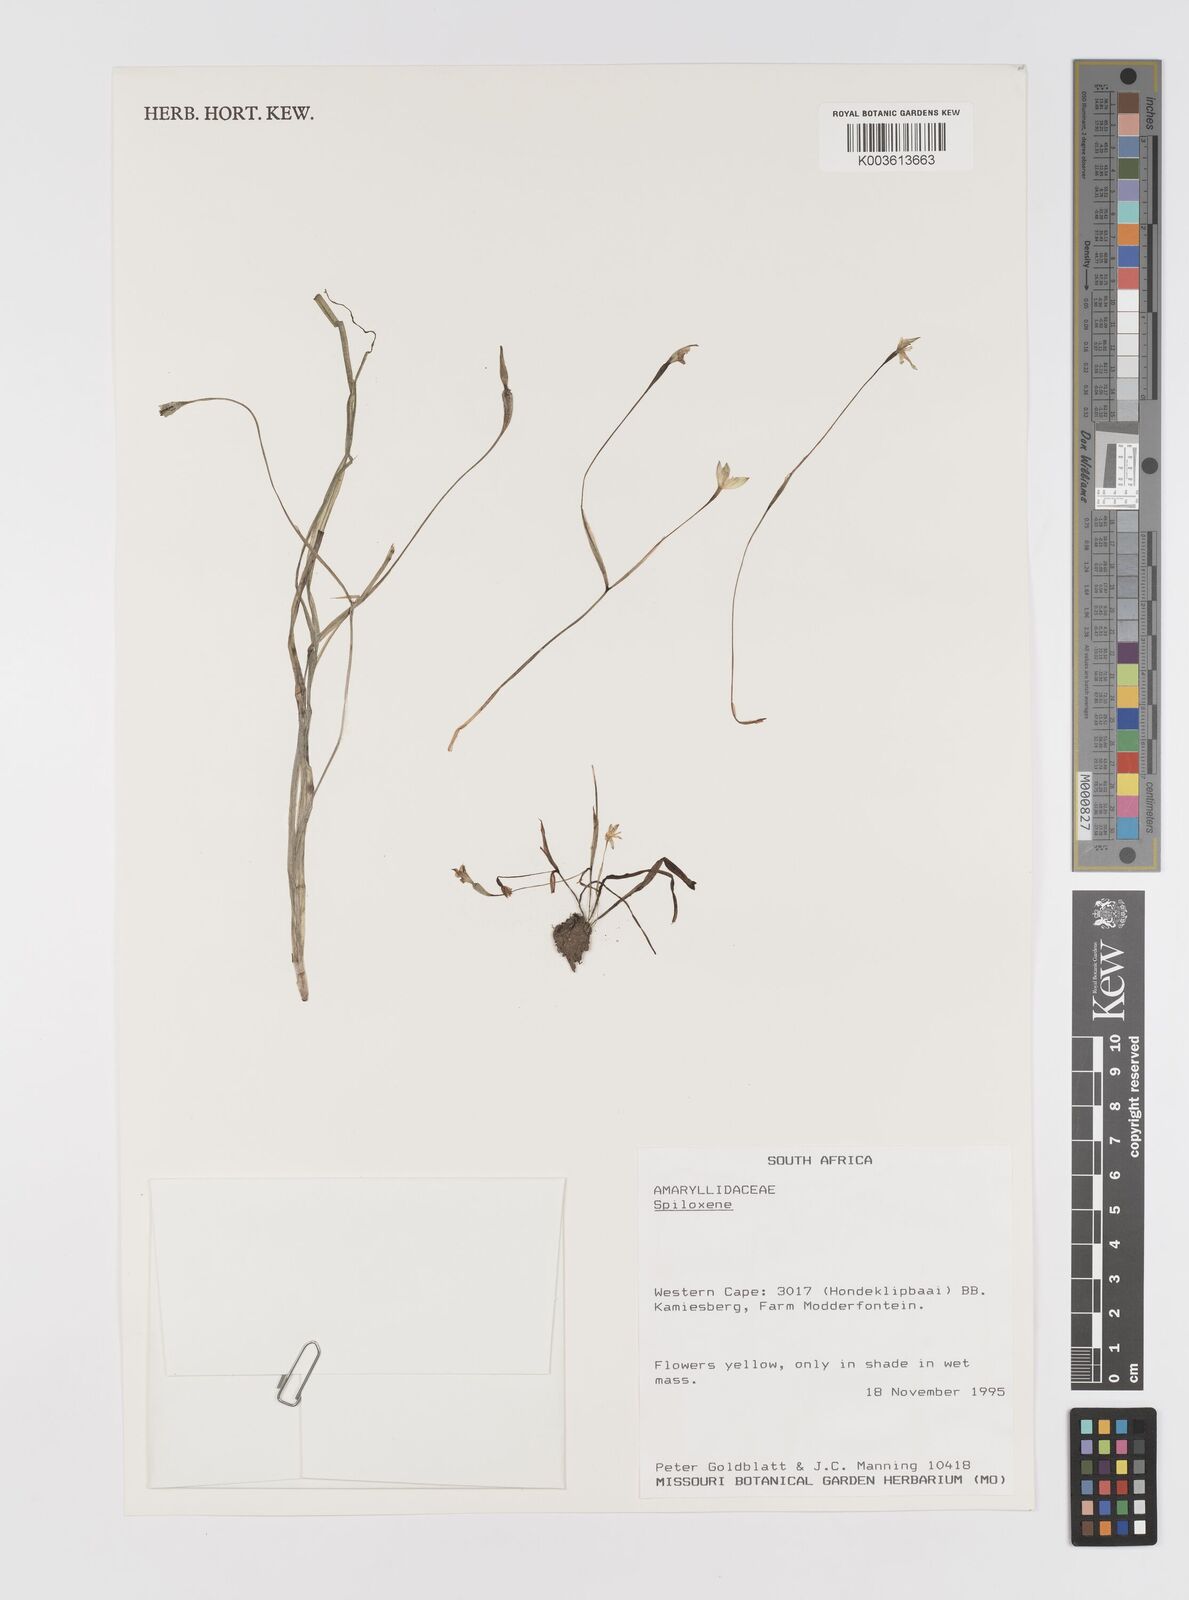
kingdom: Plantae
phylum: Tracheophyta
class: Liliopsida
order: Asparagales
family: Hypoxidaceae
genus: Pauridia
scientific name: Pauridia
